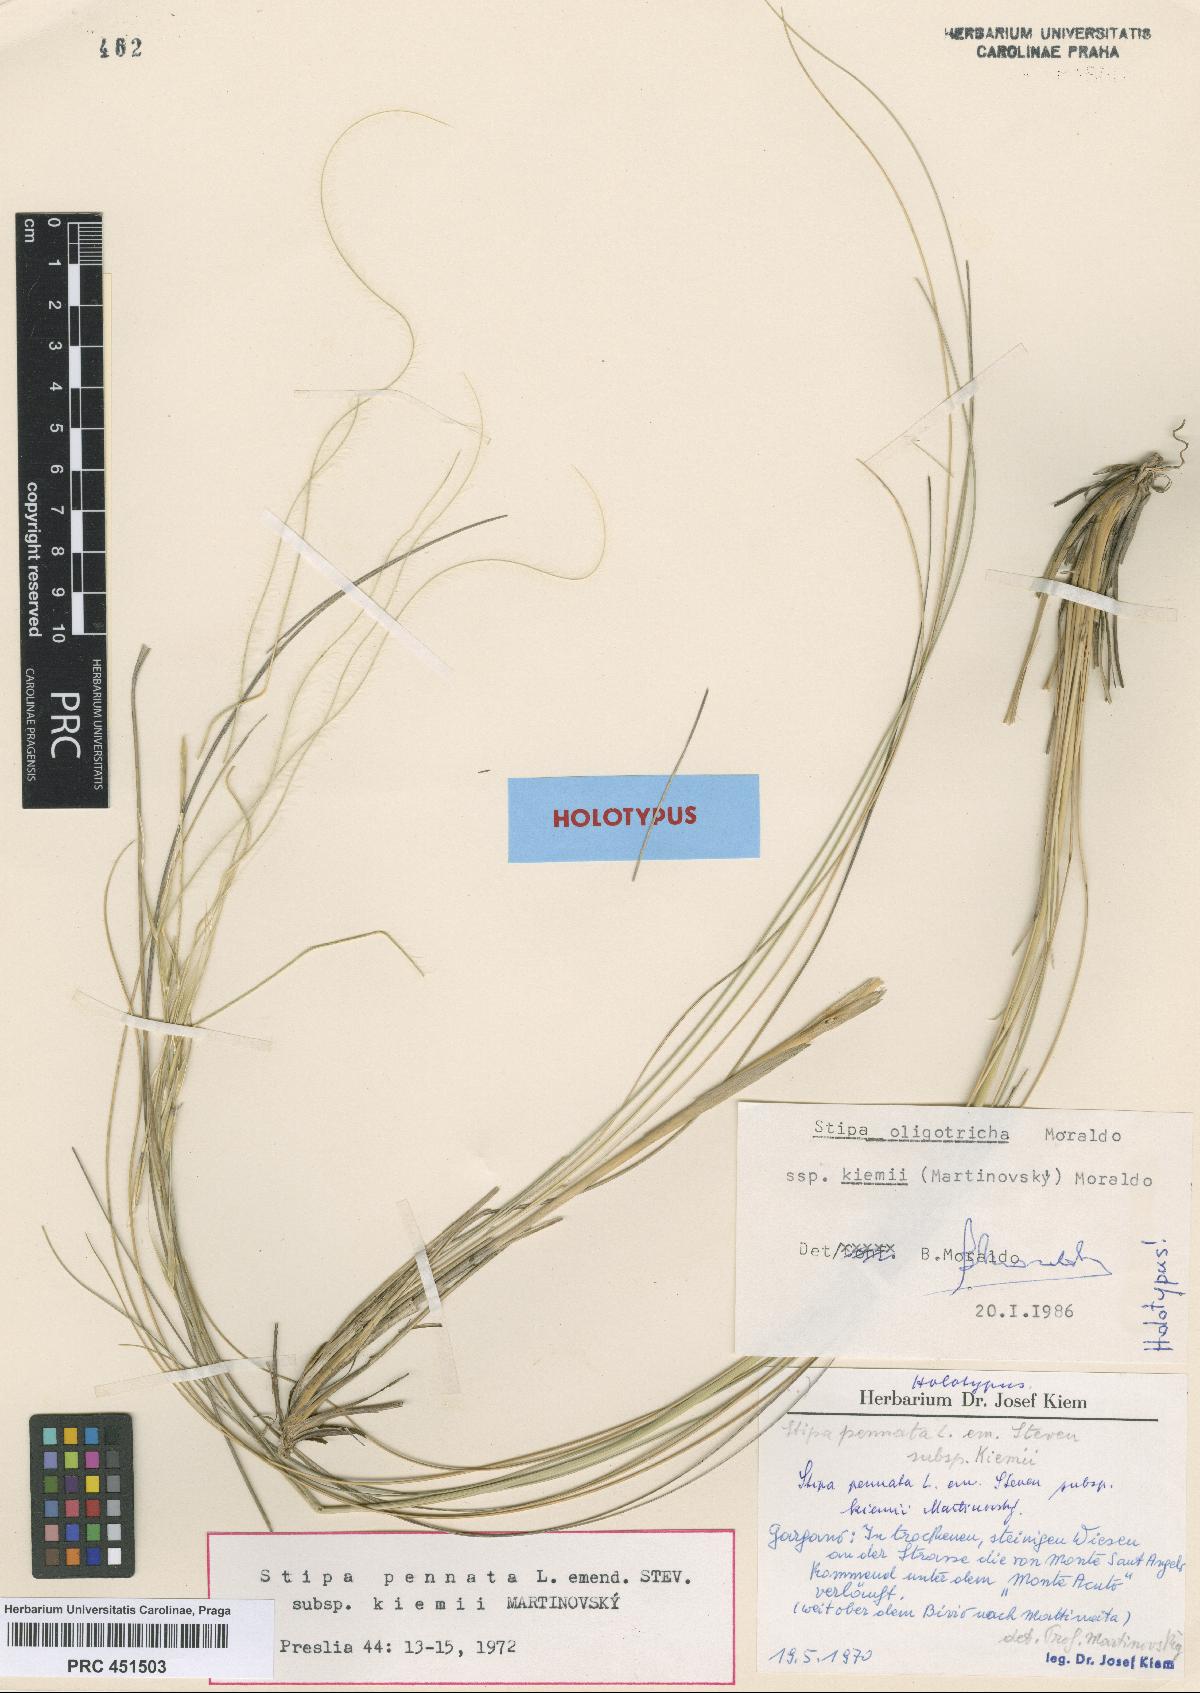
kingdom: Plantae
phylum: Tracheophyta
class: Liliopsida
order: Poales
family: Poaceae
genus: Stipa
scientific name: Stipa pennata
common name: European feather grass
